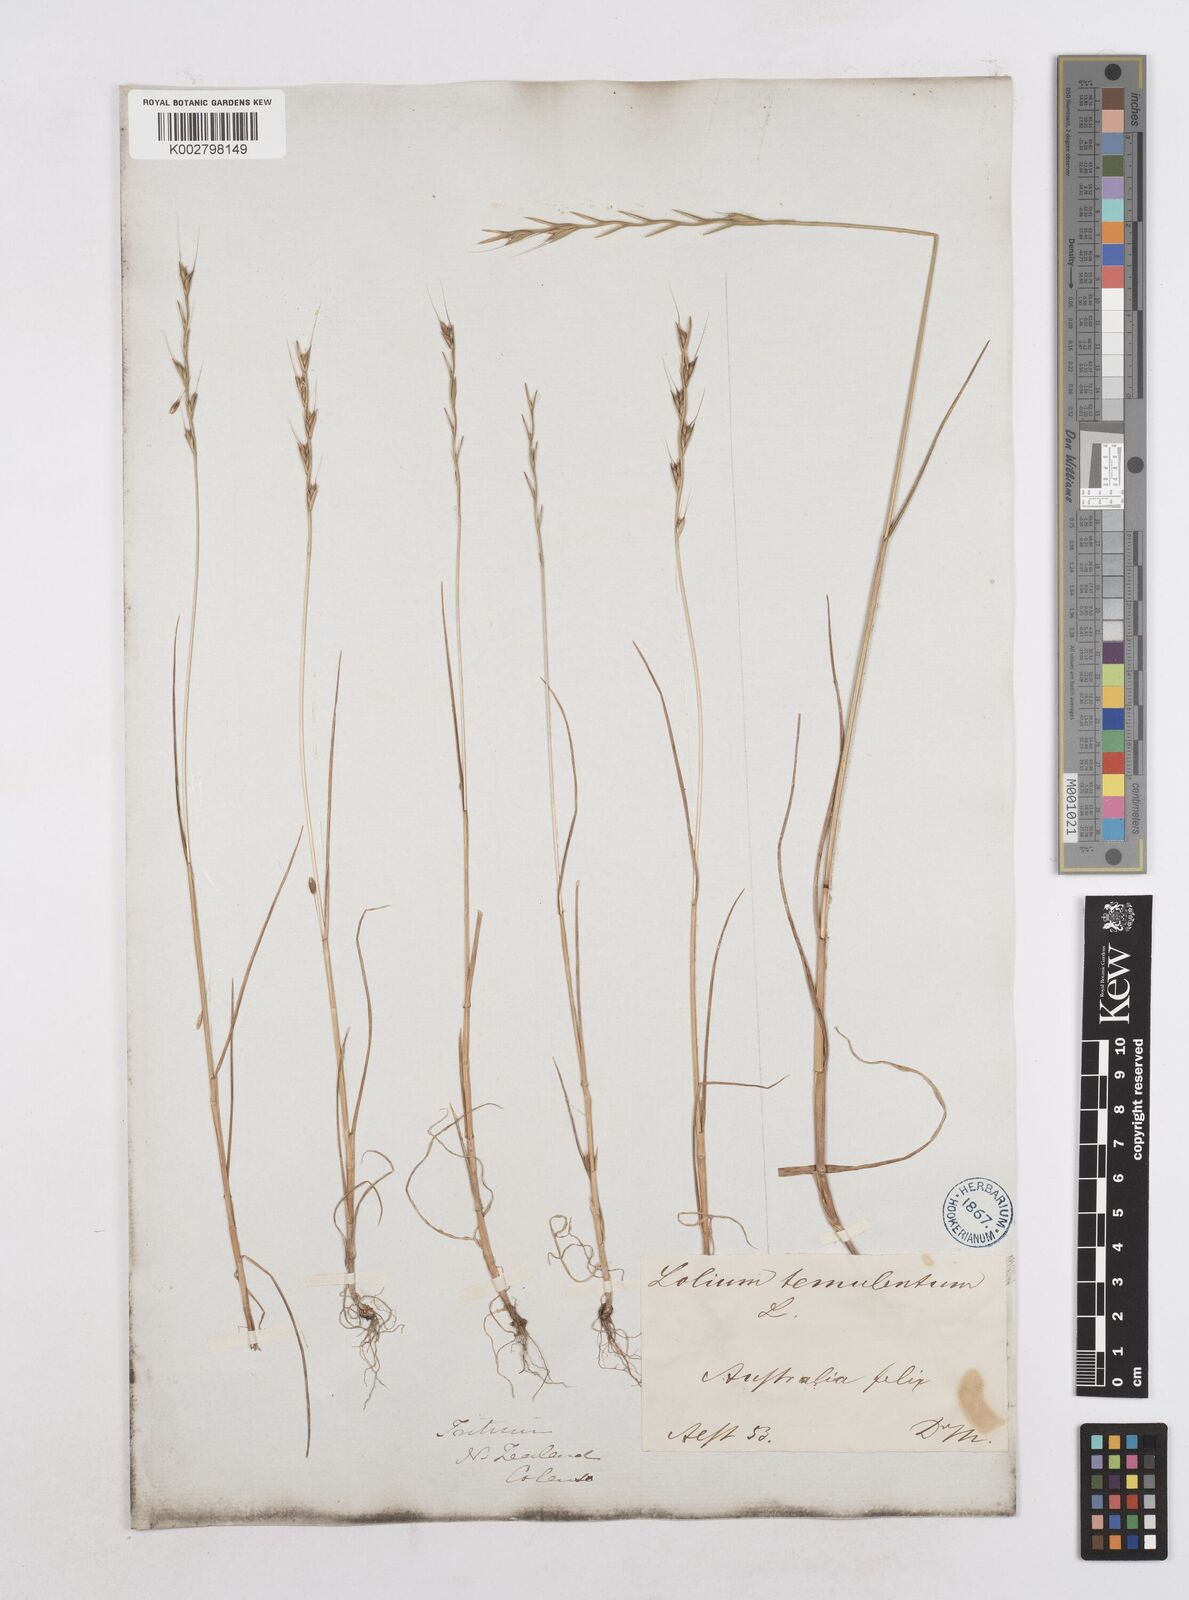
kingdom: Plantae
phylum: Tracheophyta
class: Liliopsida
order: Poales
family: Poaceae
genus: Lolium
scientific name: Lolium
